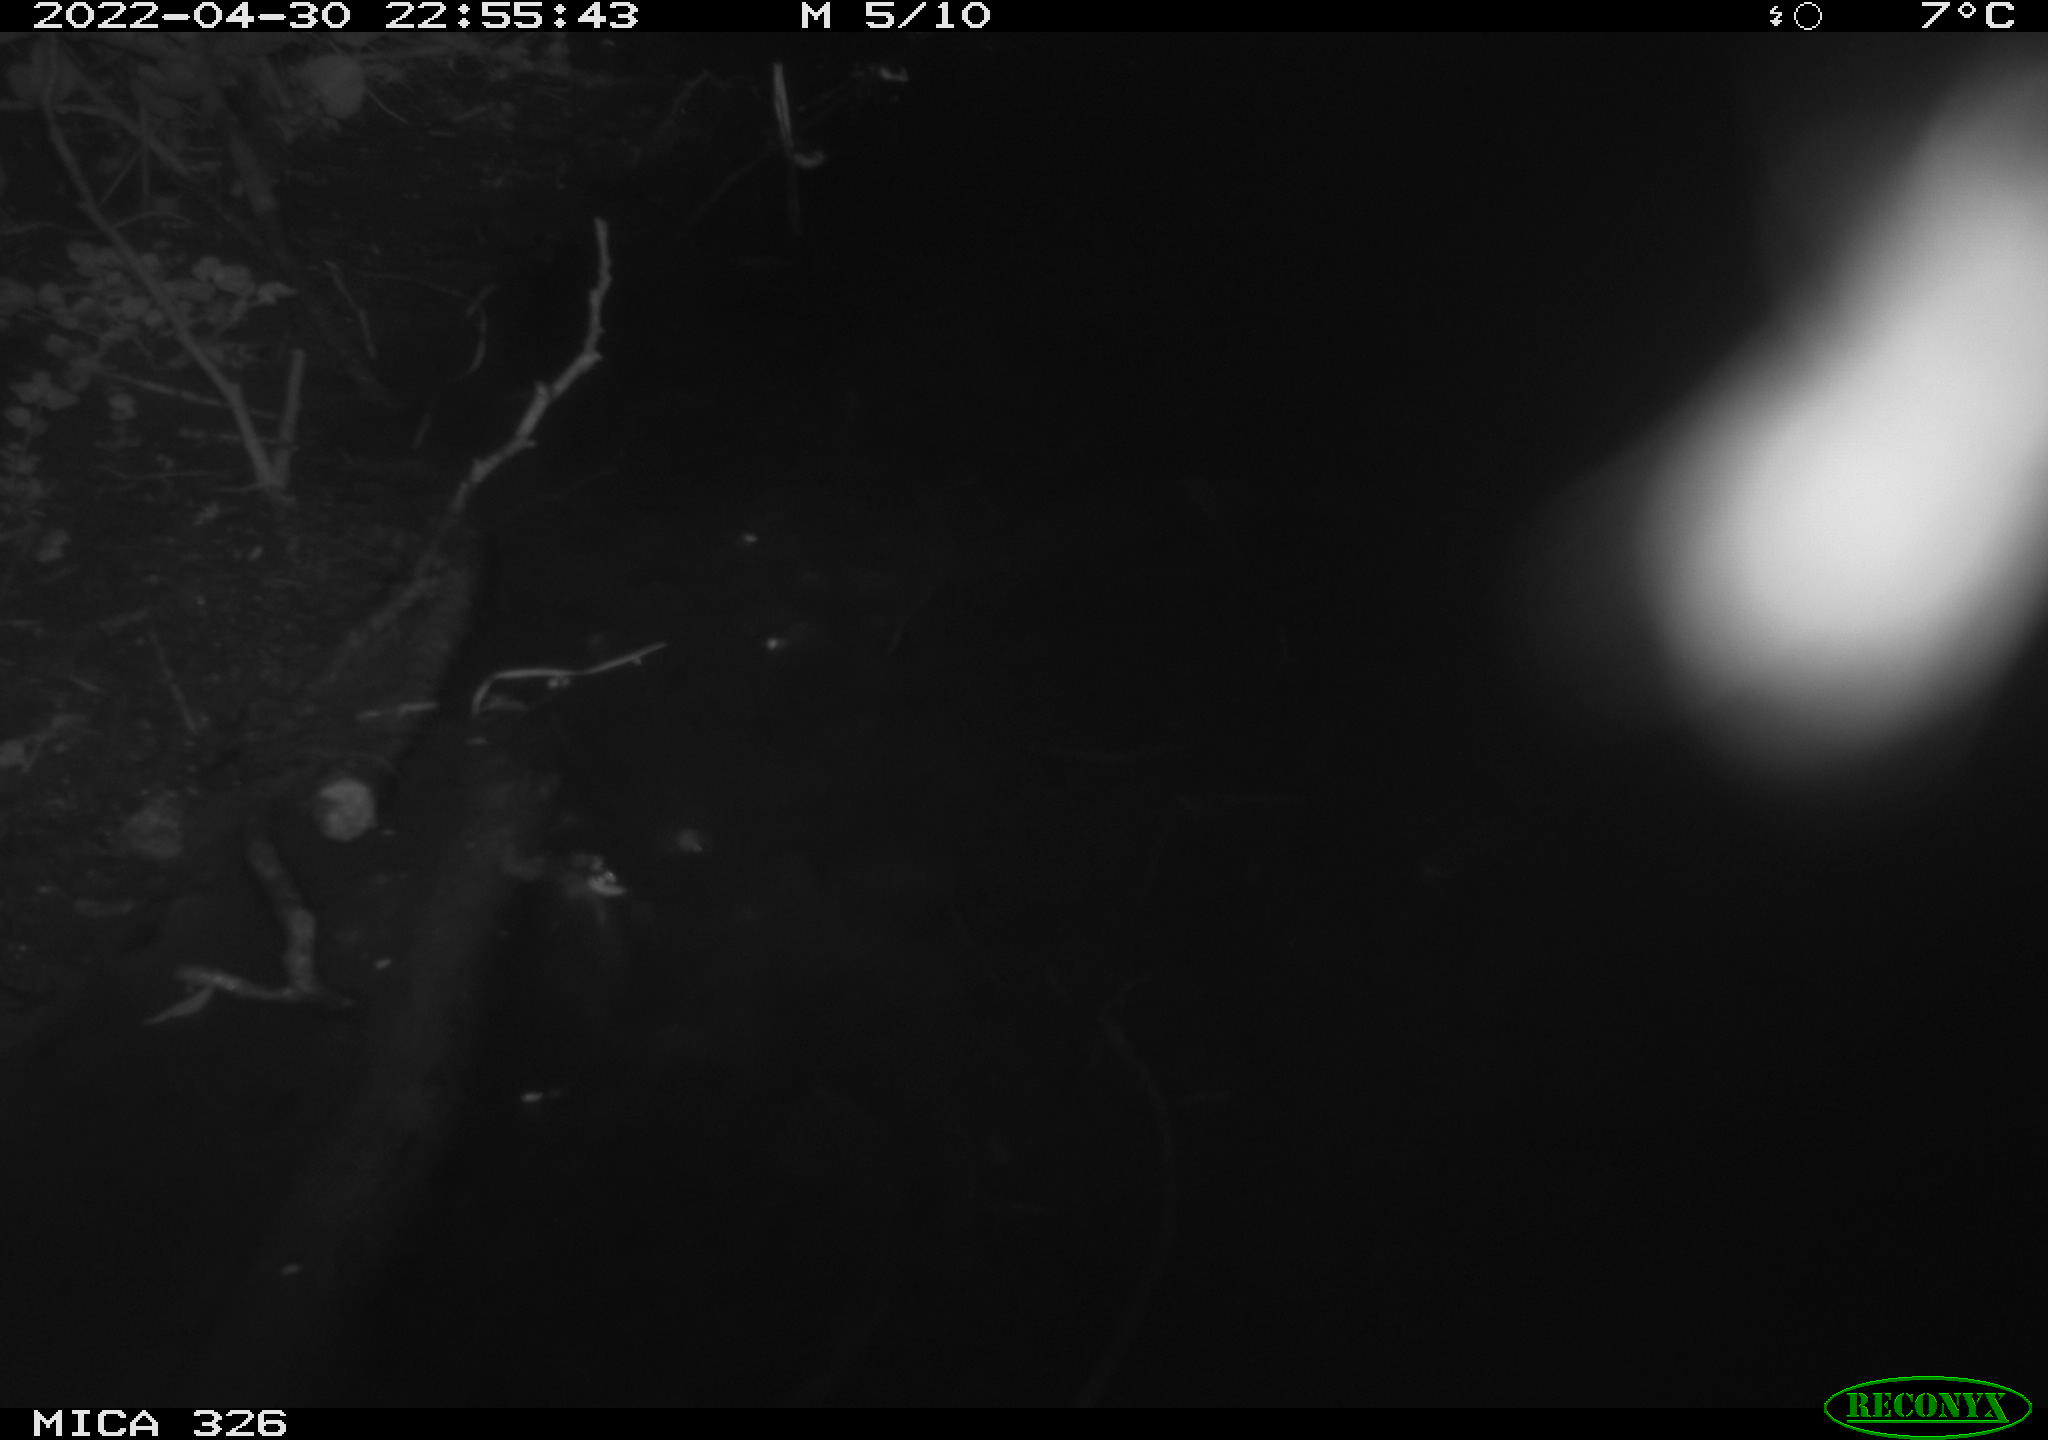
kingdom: Animalia
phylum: Chordata
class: Mammalia
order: Rodentia
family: Muridae
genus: Rattus
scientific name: Rattus norvegicus
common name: Brown rat
